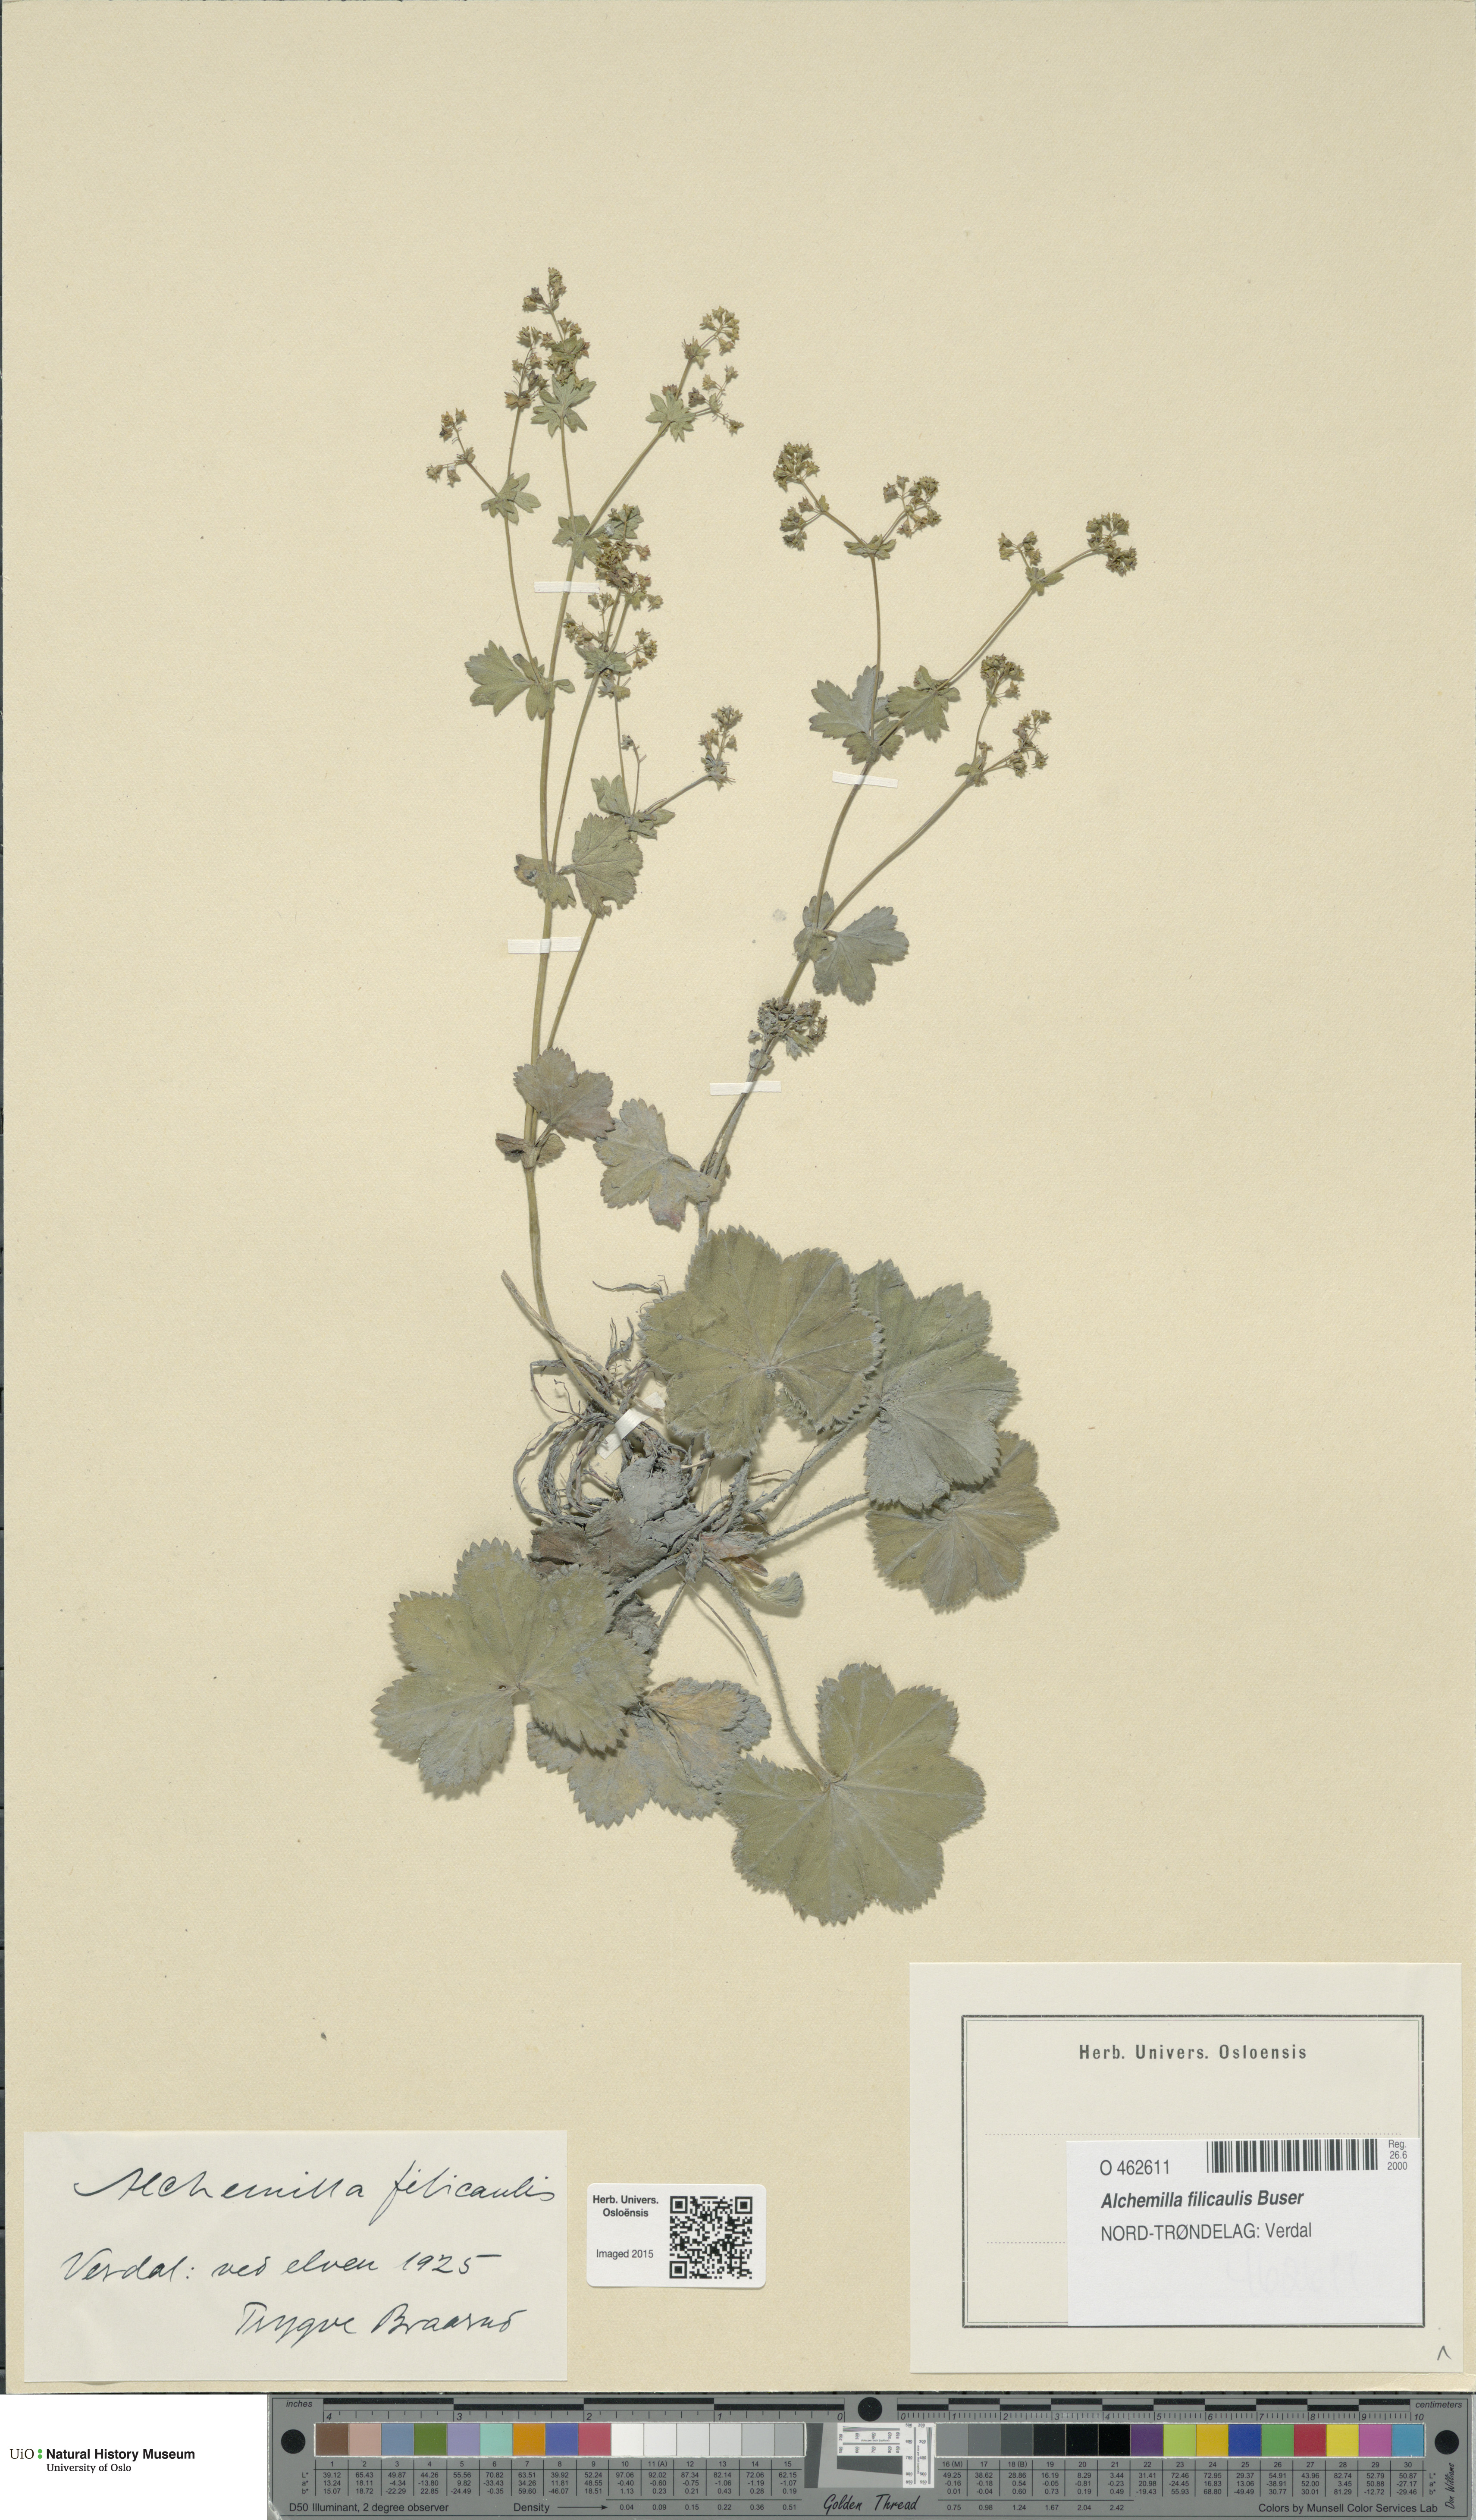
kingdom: Plantae
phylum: Tracheophyta
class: Magnoliopsida
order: Rosales
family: Rosaceae
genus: Alchemilla
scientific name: Alchemilla filicaulis
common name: Hairy lady's-mantle
